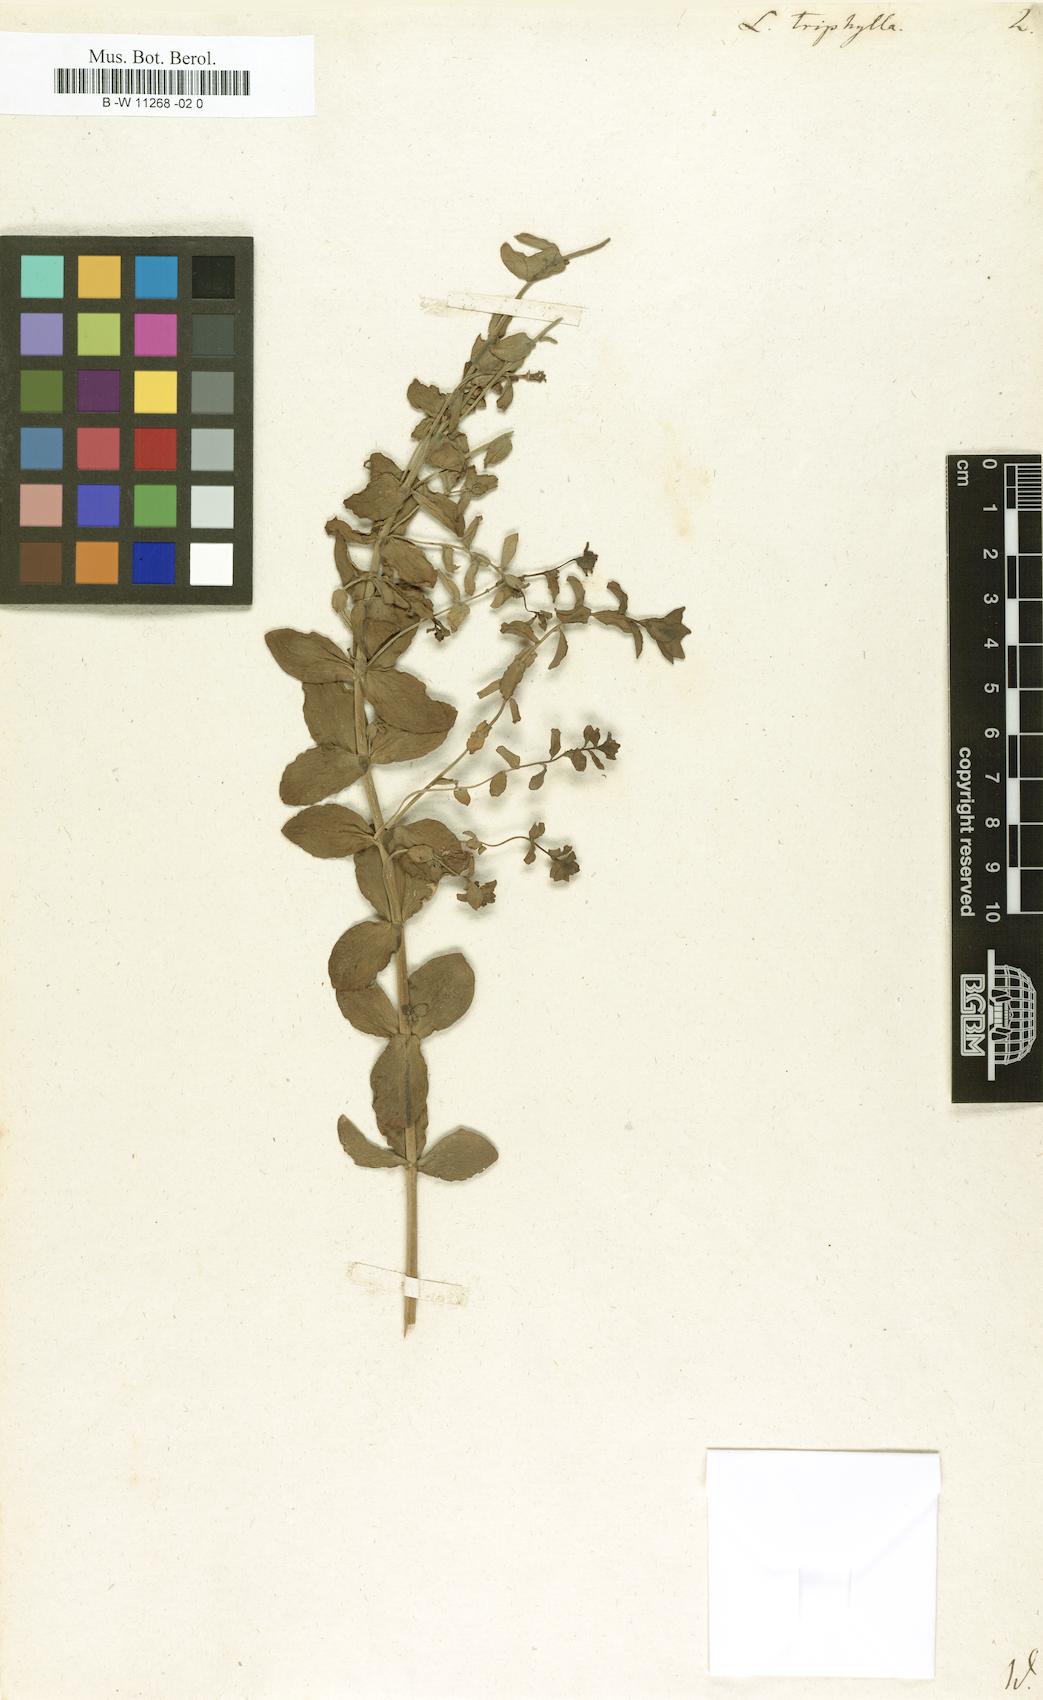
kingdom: Plantae
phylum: Tracheophyta
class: Magnoliopsida
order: Lamiales
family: Plantaginaceae
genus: Linaria
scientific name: Linaria triphylla
